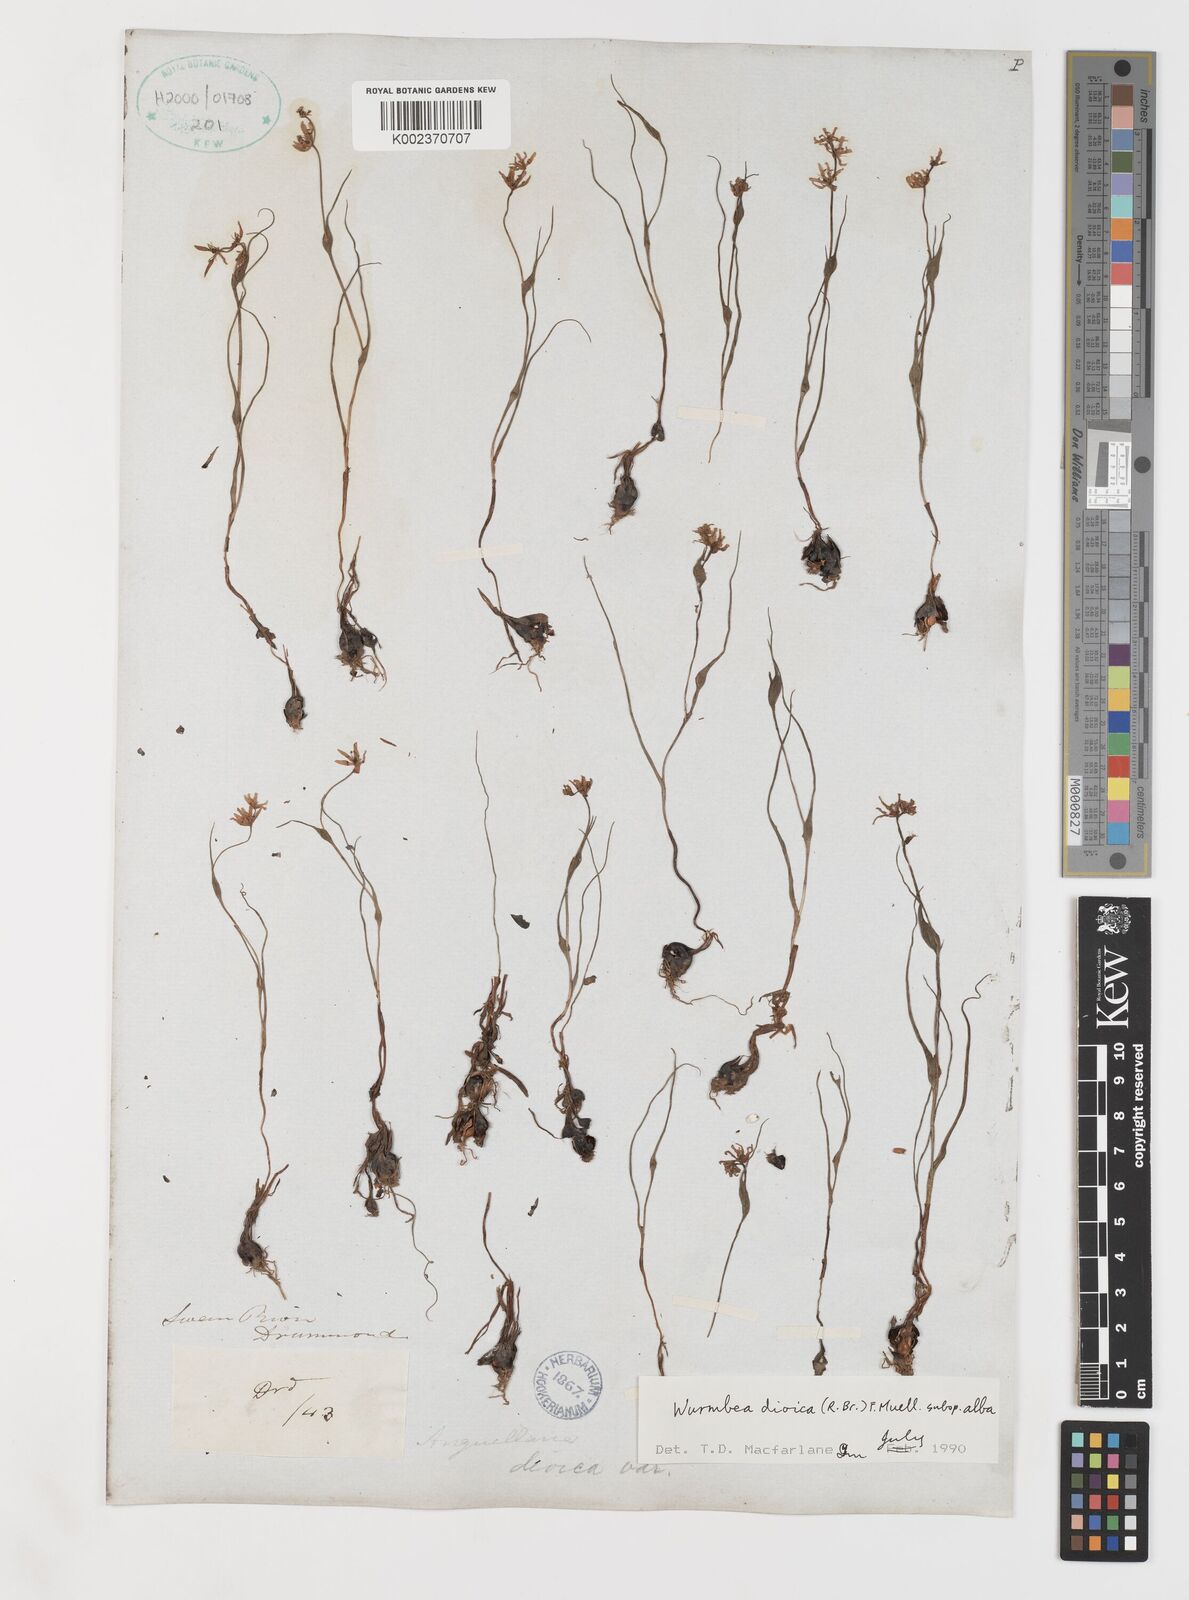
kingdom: Plantae
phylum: Tracheophyta
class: Liliopsida
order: Liliales
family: Colchicaceae
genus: Wurmbea
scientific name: Wurmbea dioica
